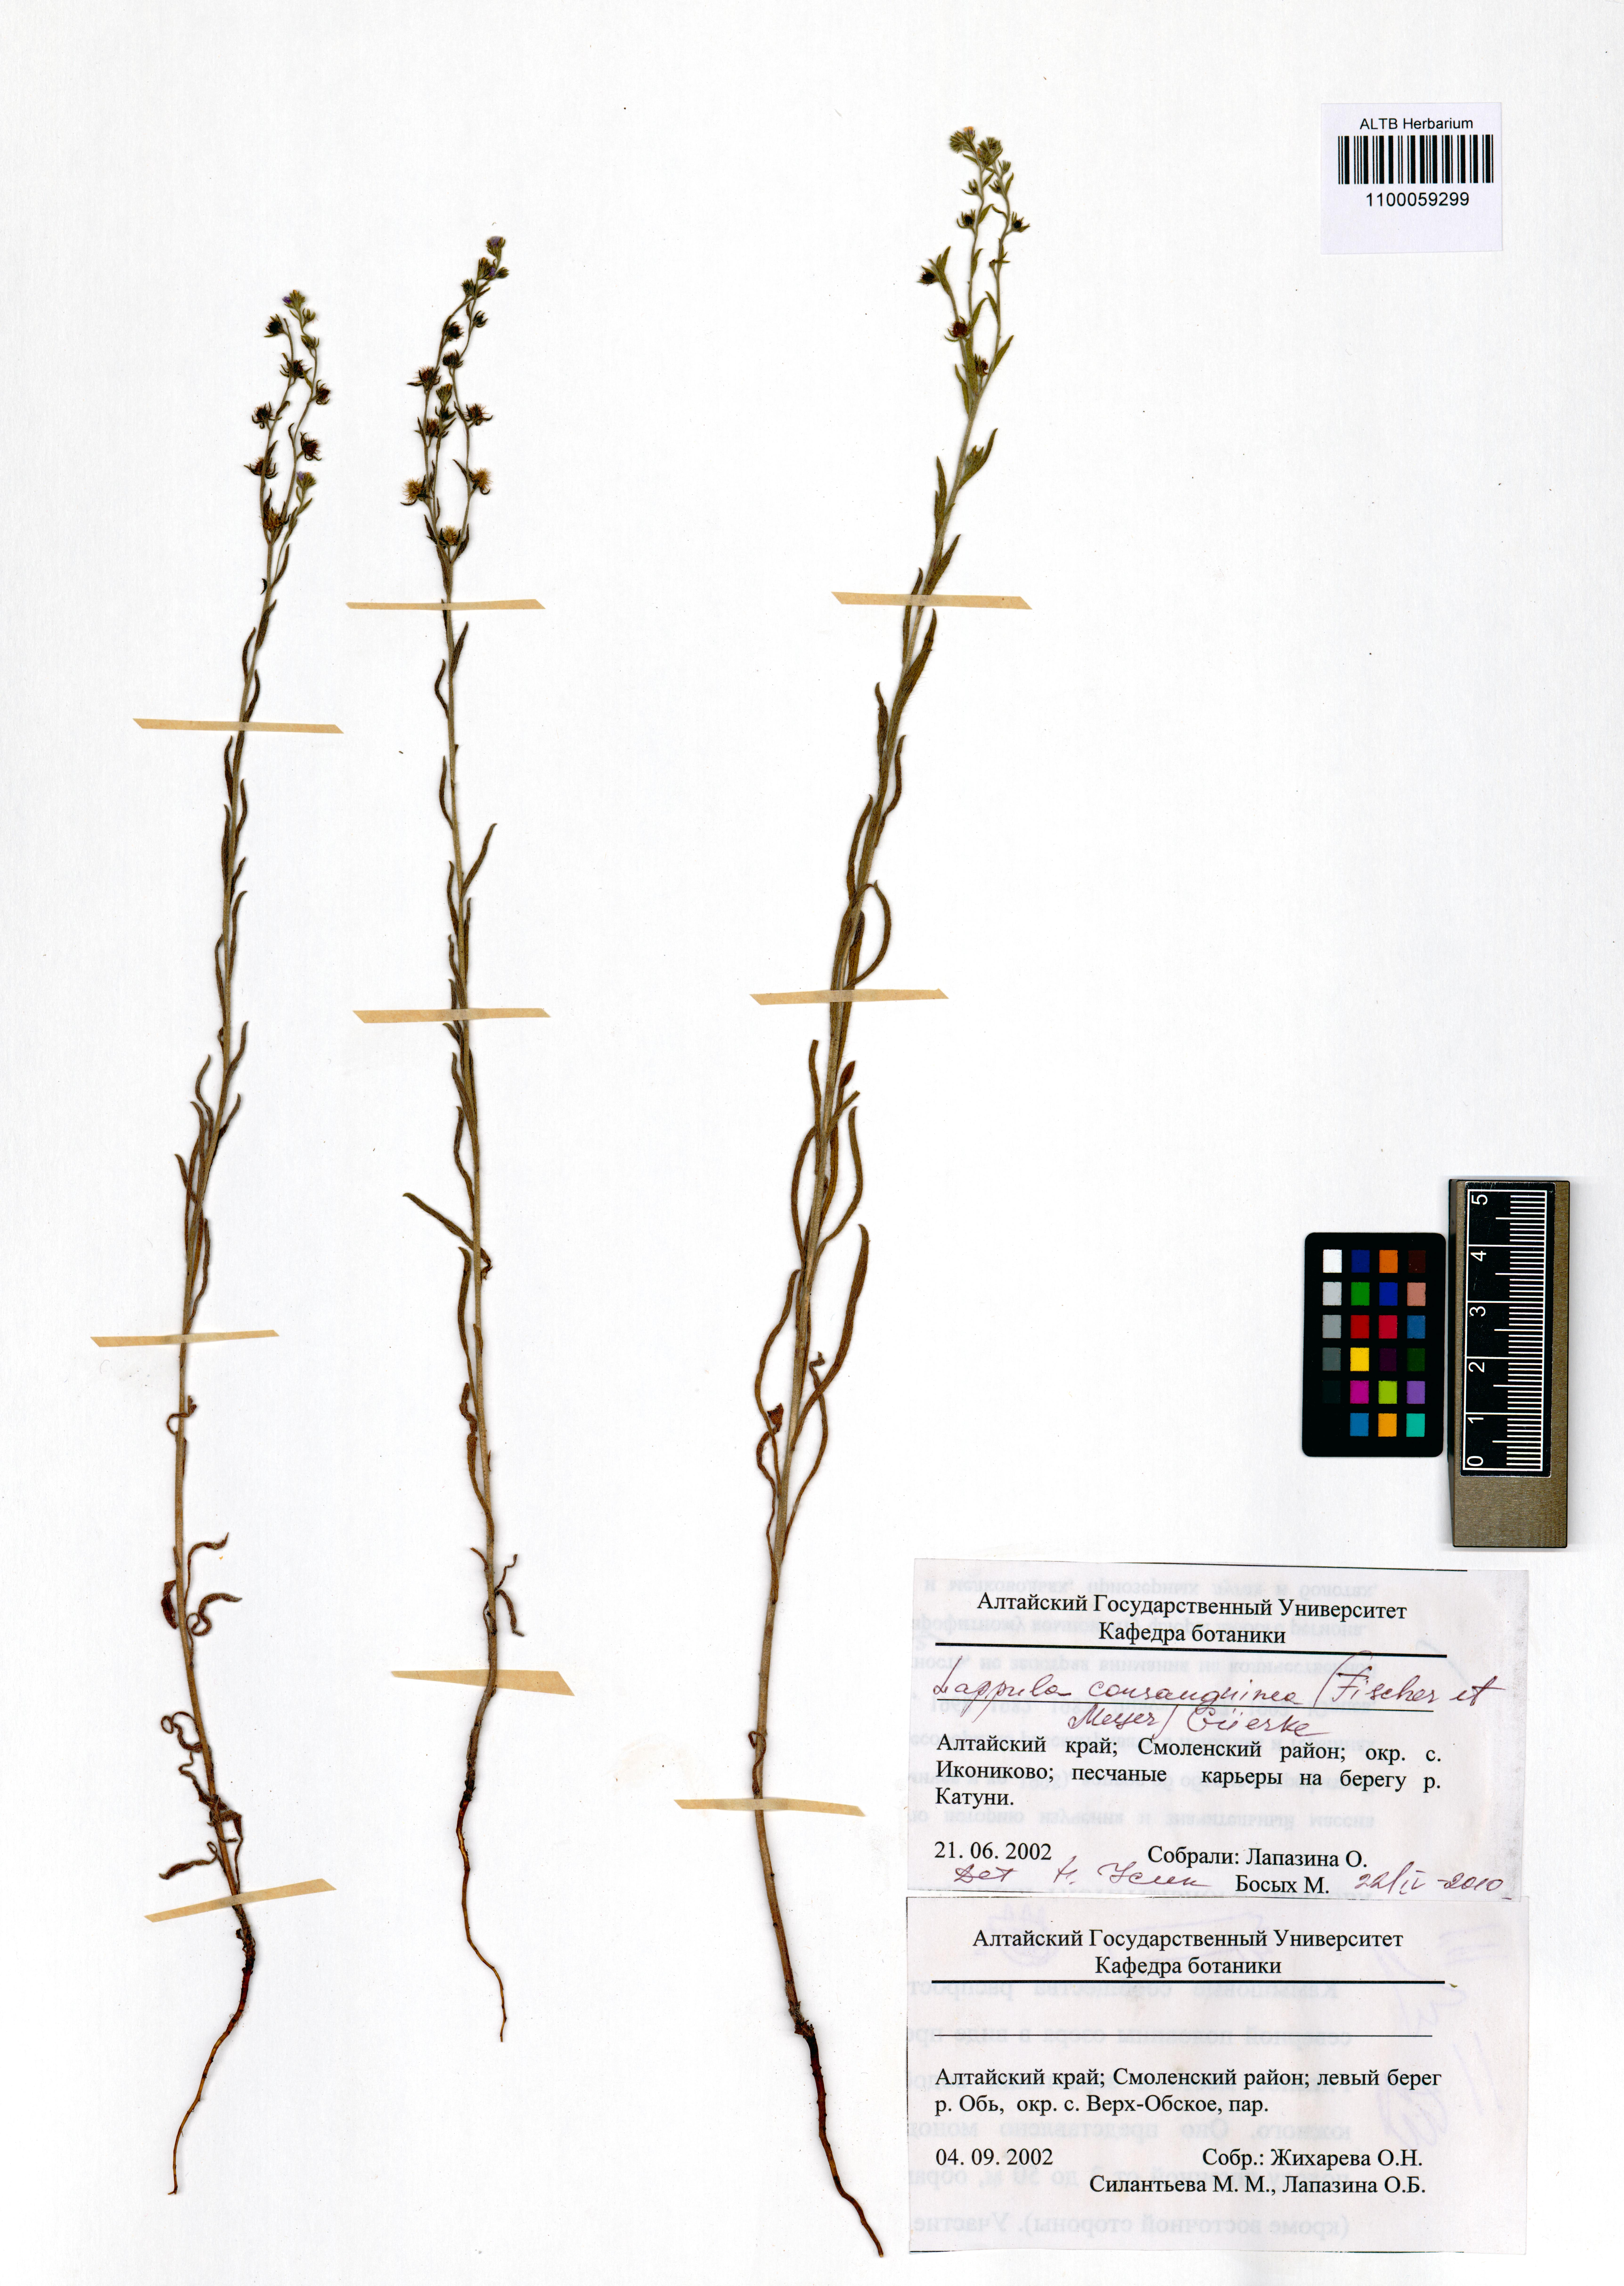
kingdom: Plantae
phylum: Tracheophyta
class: Magnoliopsida
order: Boraginales
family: Boraginaceae
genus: Lappula
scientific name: Lappula squarrosa
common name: European stickseed
